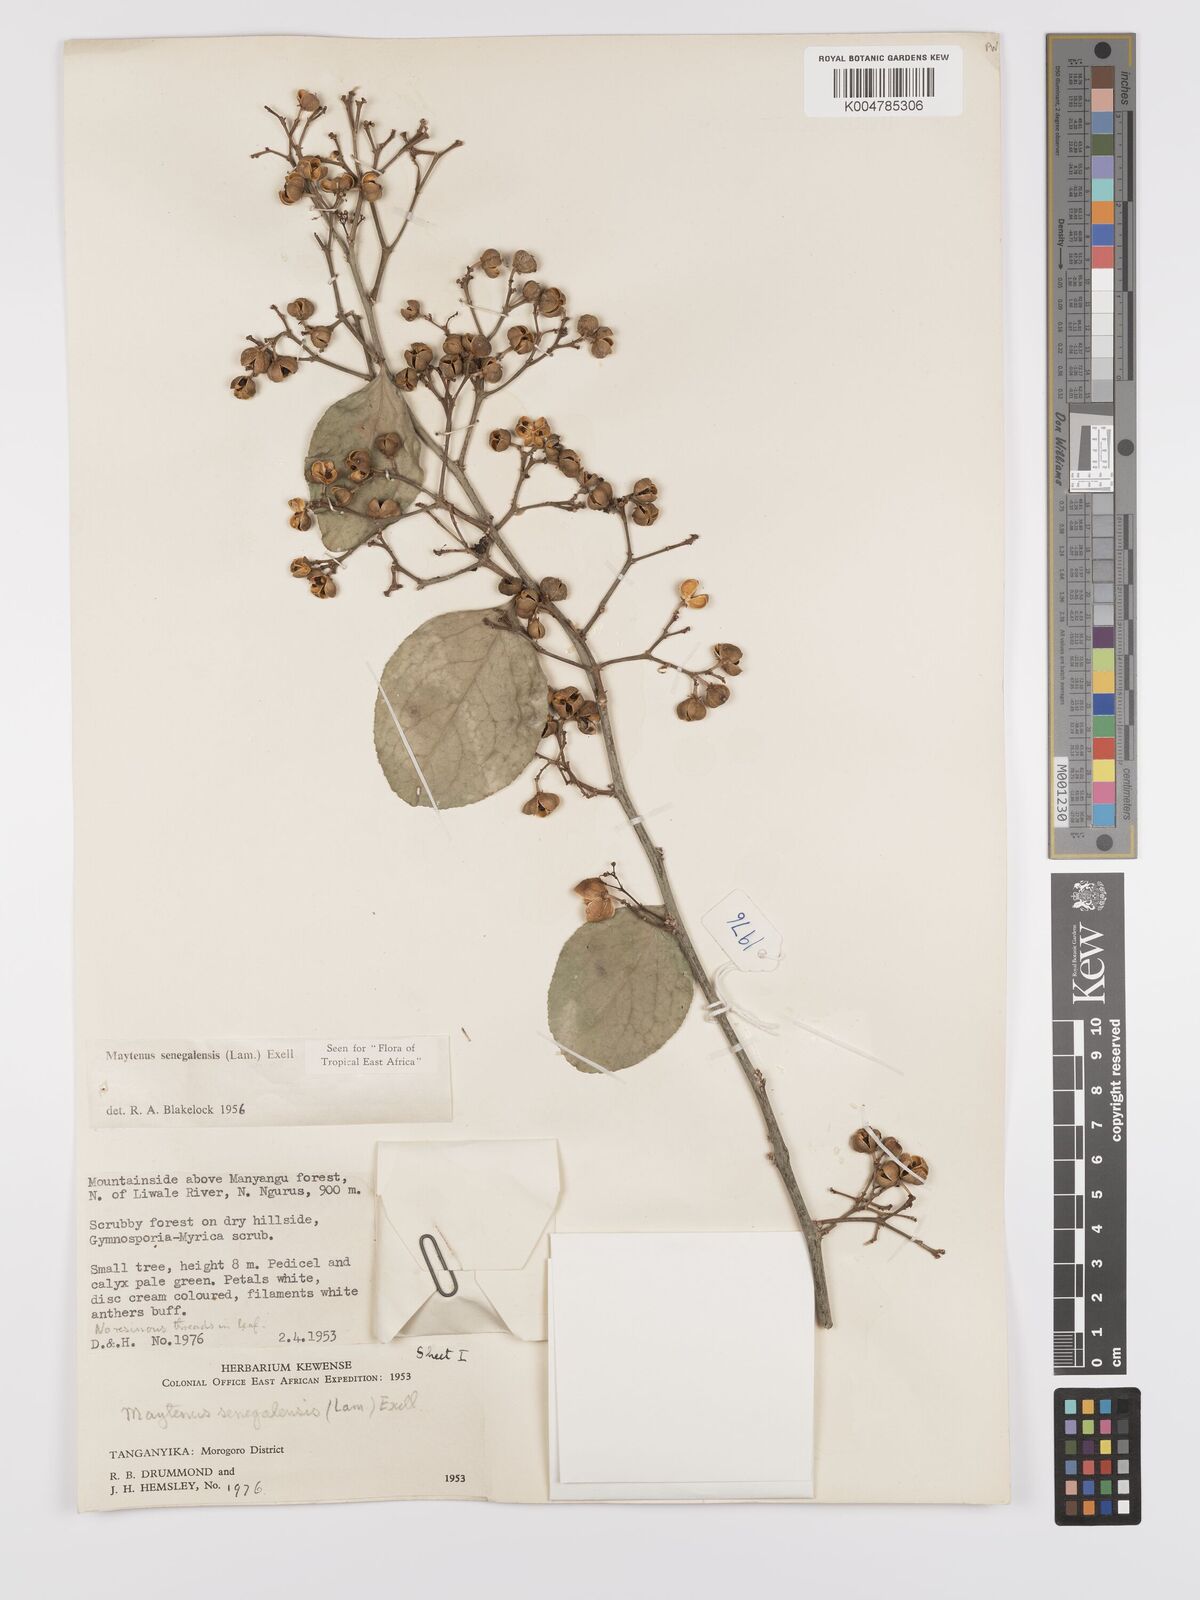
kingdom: Plantae
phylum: Tracheophyta
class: Magnoliopsida
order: Celastrales
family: Celastraceae
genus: Gymnosporia
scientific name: Gymnosporia nguruensis
